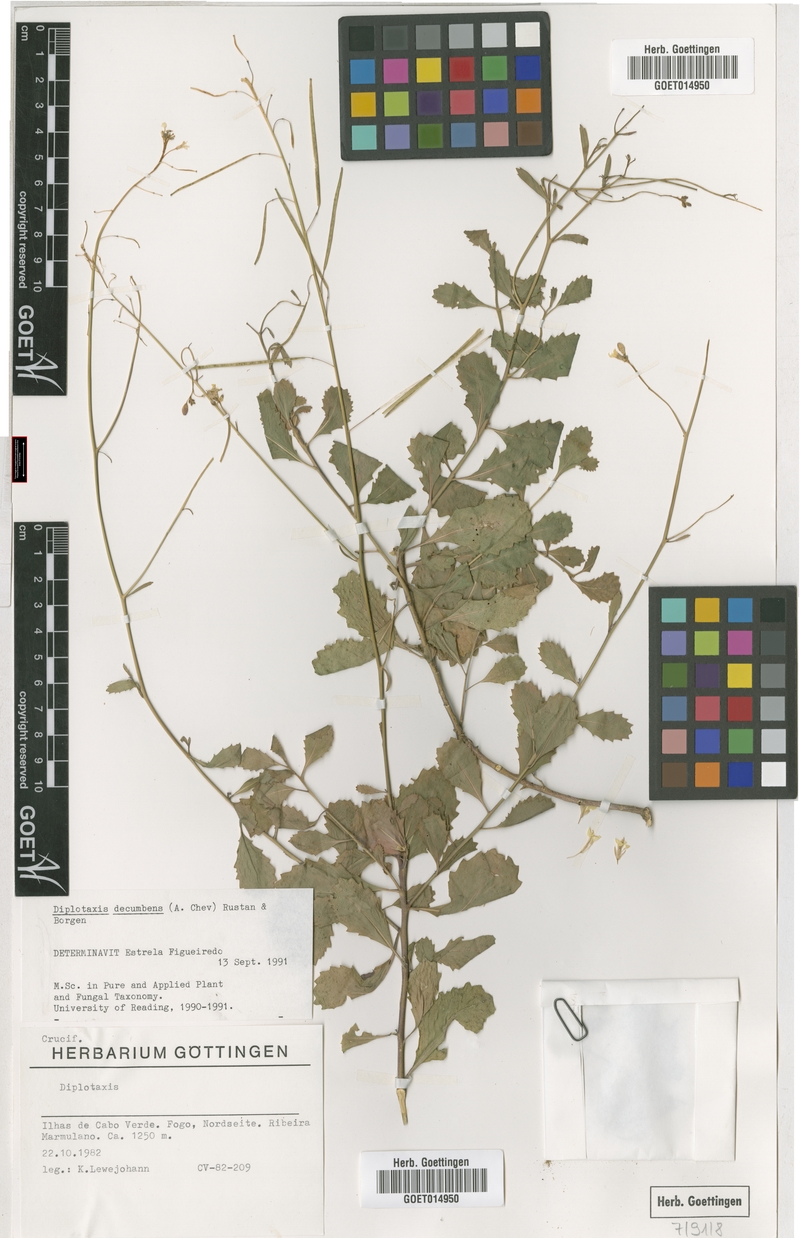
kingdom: Plantae
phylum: Tracheophyta
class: Magnoliopsida
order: Brassicales
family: Brassicaceae
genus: Diplotaxis
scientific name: Diplotaxis decumbens
